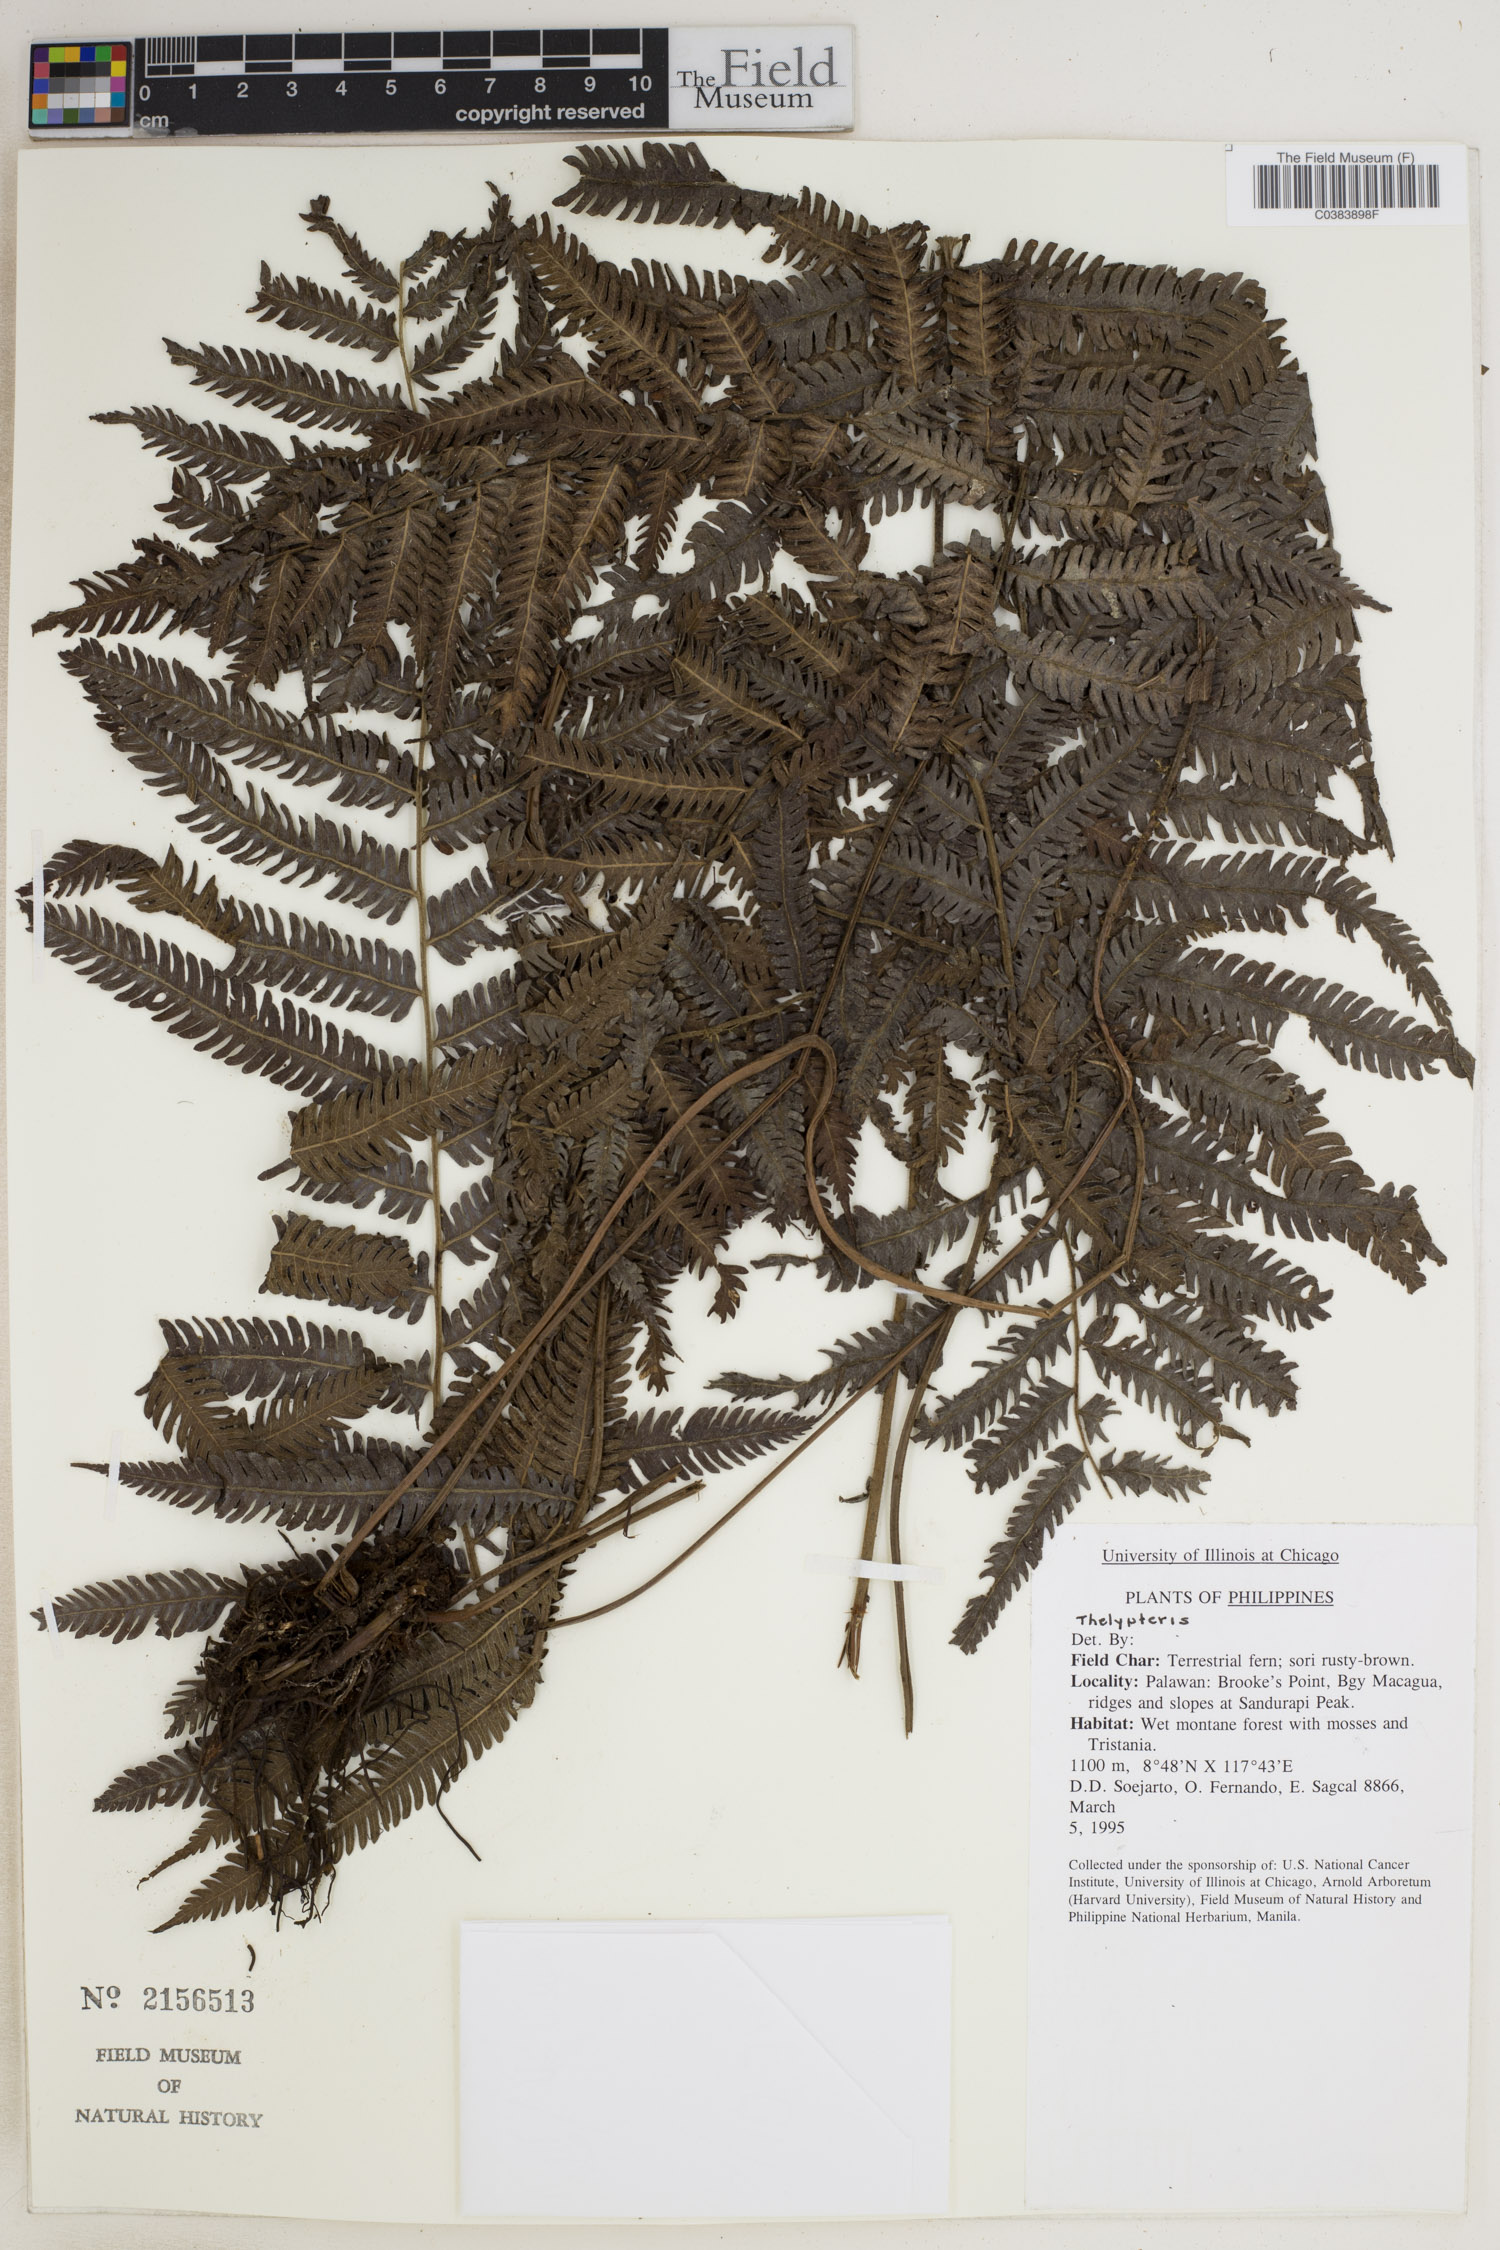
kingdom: Plantae
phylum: Tracheophyta
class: Polypodiopsida
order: Polypodiales
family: Thelypteridaceae
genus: Thelypteris
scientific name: Thelypteris
